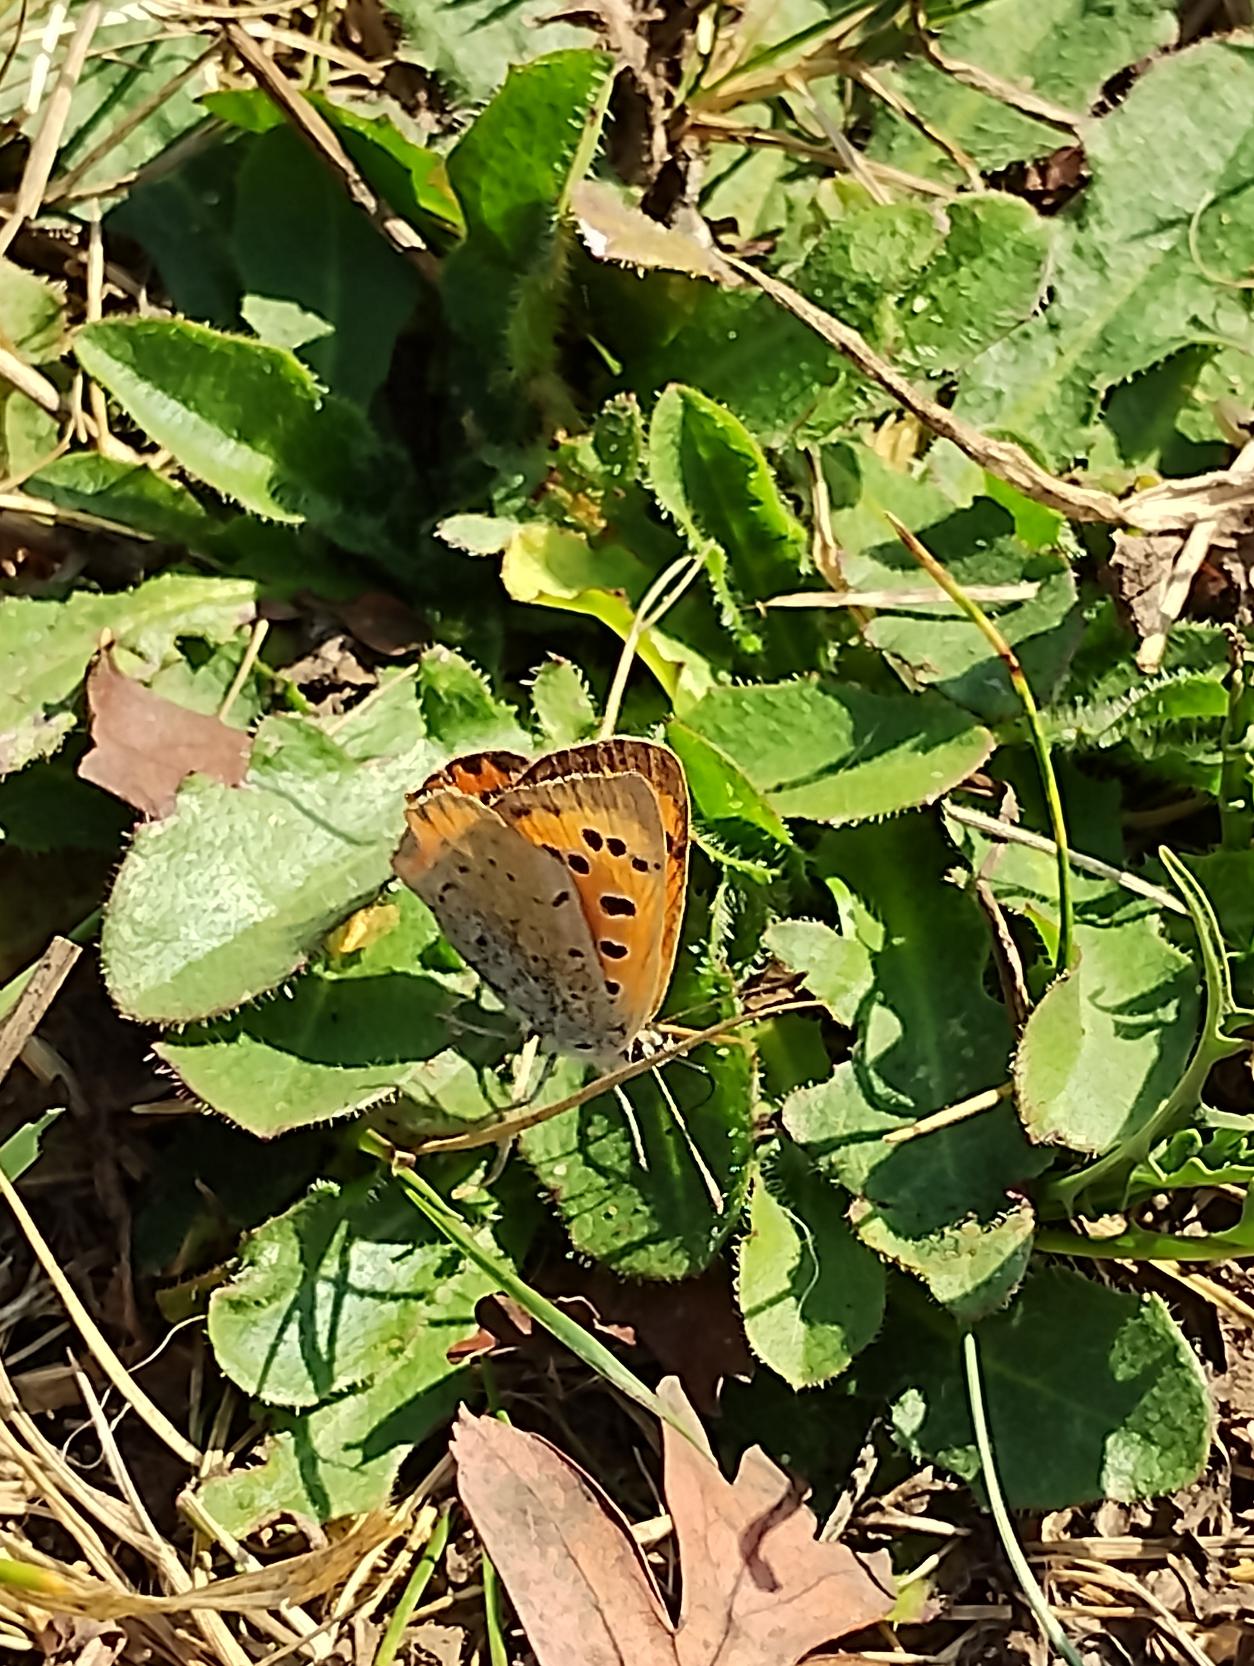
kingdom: Animalia
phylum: Arthropoda
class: Insecta
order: Lepidoptera
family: Lycaenidae
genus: Lycaena
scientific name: Lycaena phlaeas
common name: Lille ildfugl
